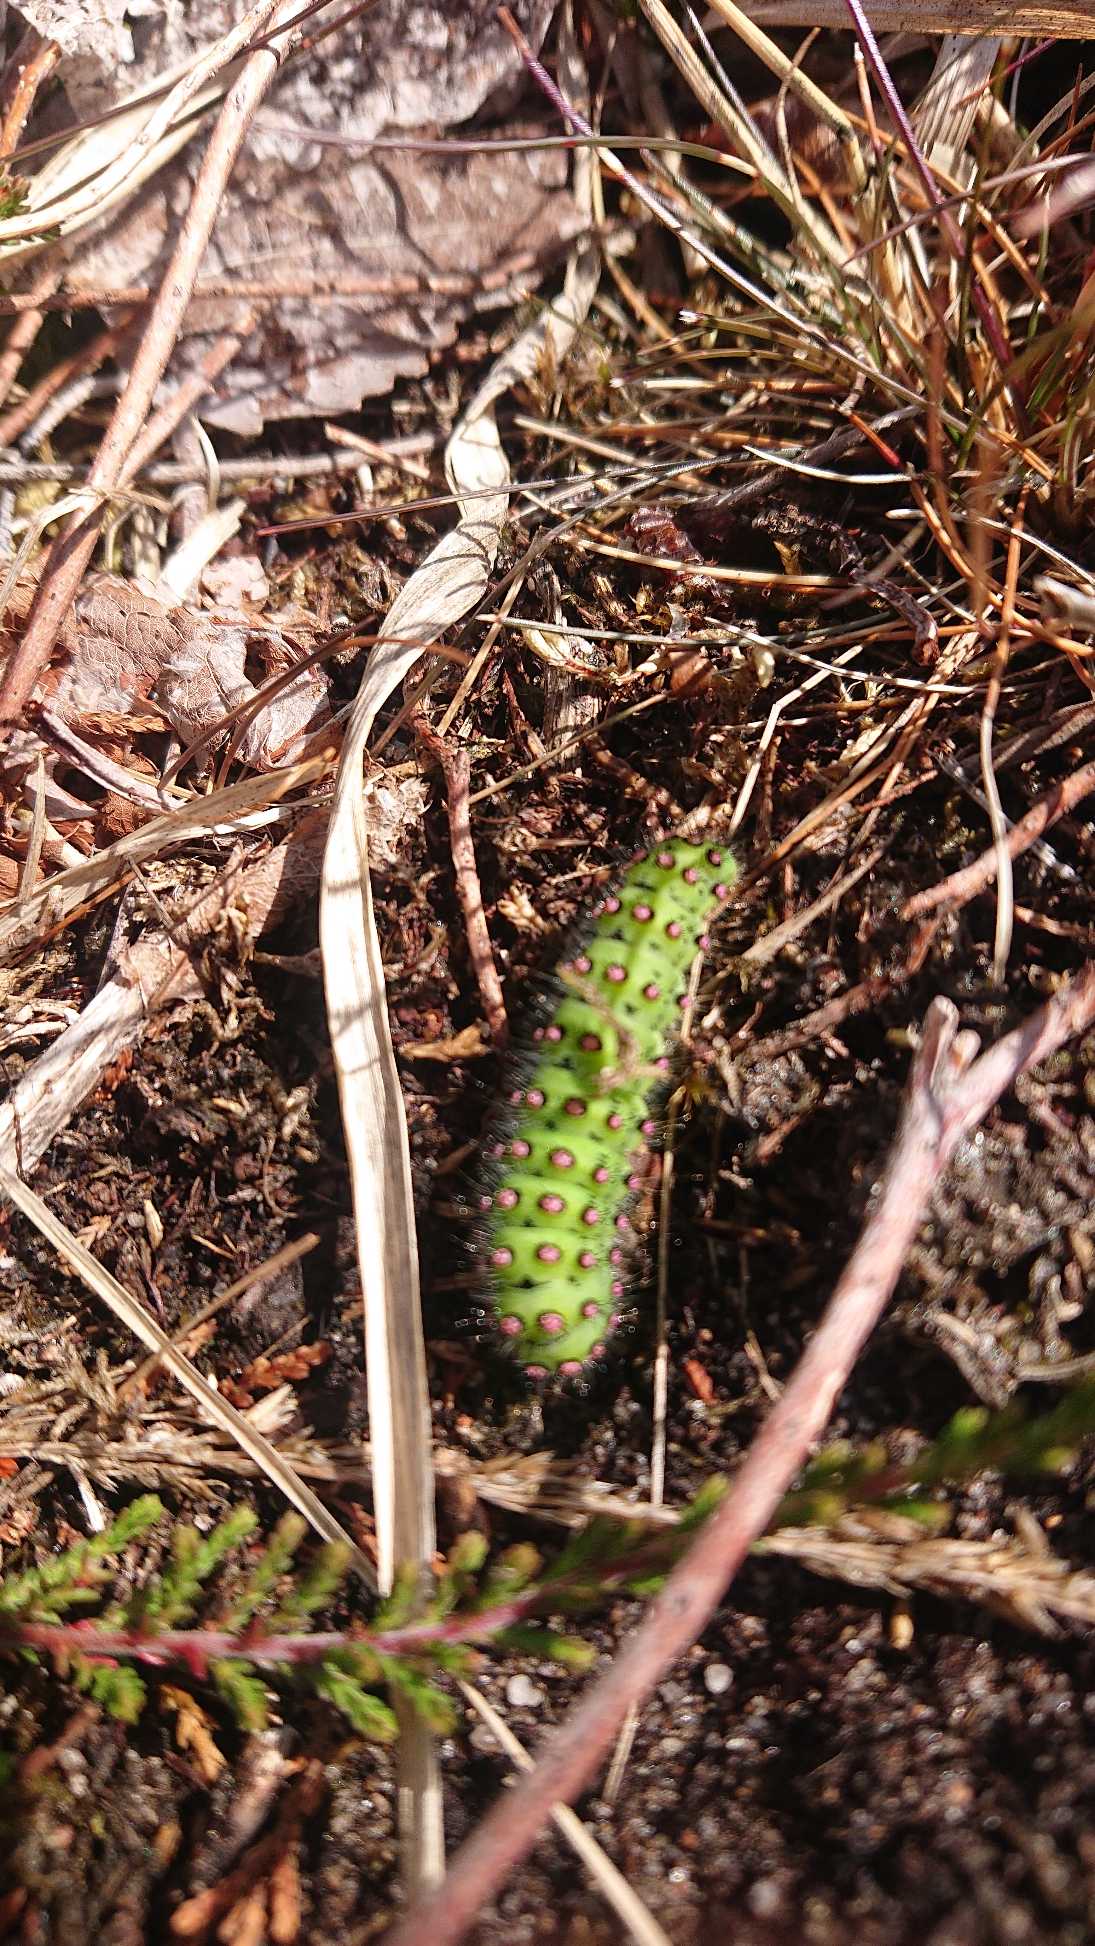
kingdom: Animalia
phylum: Arthropoda
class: Insecta
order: Lepidoptera
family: Saturniidae
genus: Saturnia
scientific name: Saturnia pavonia
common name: Lille natpåfugleøje
